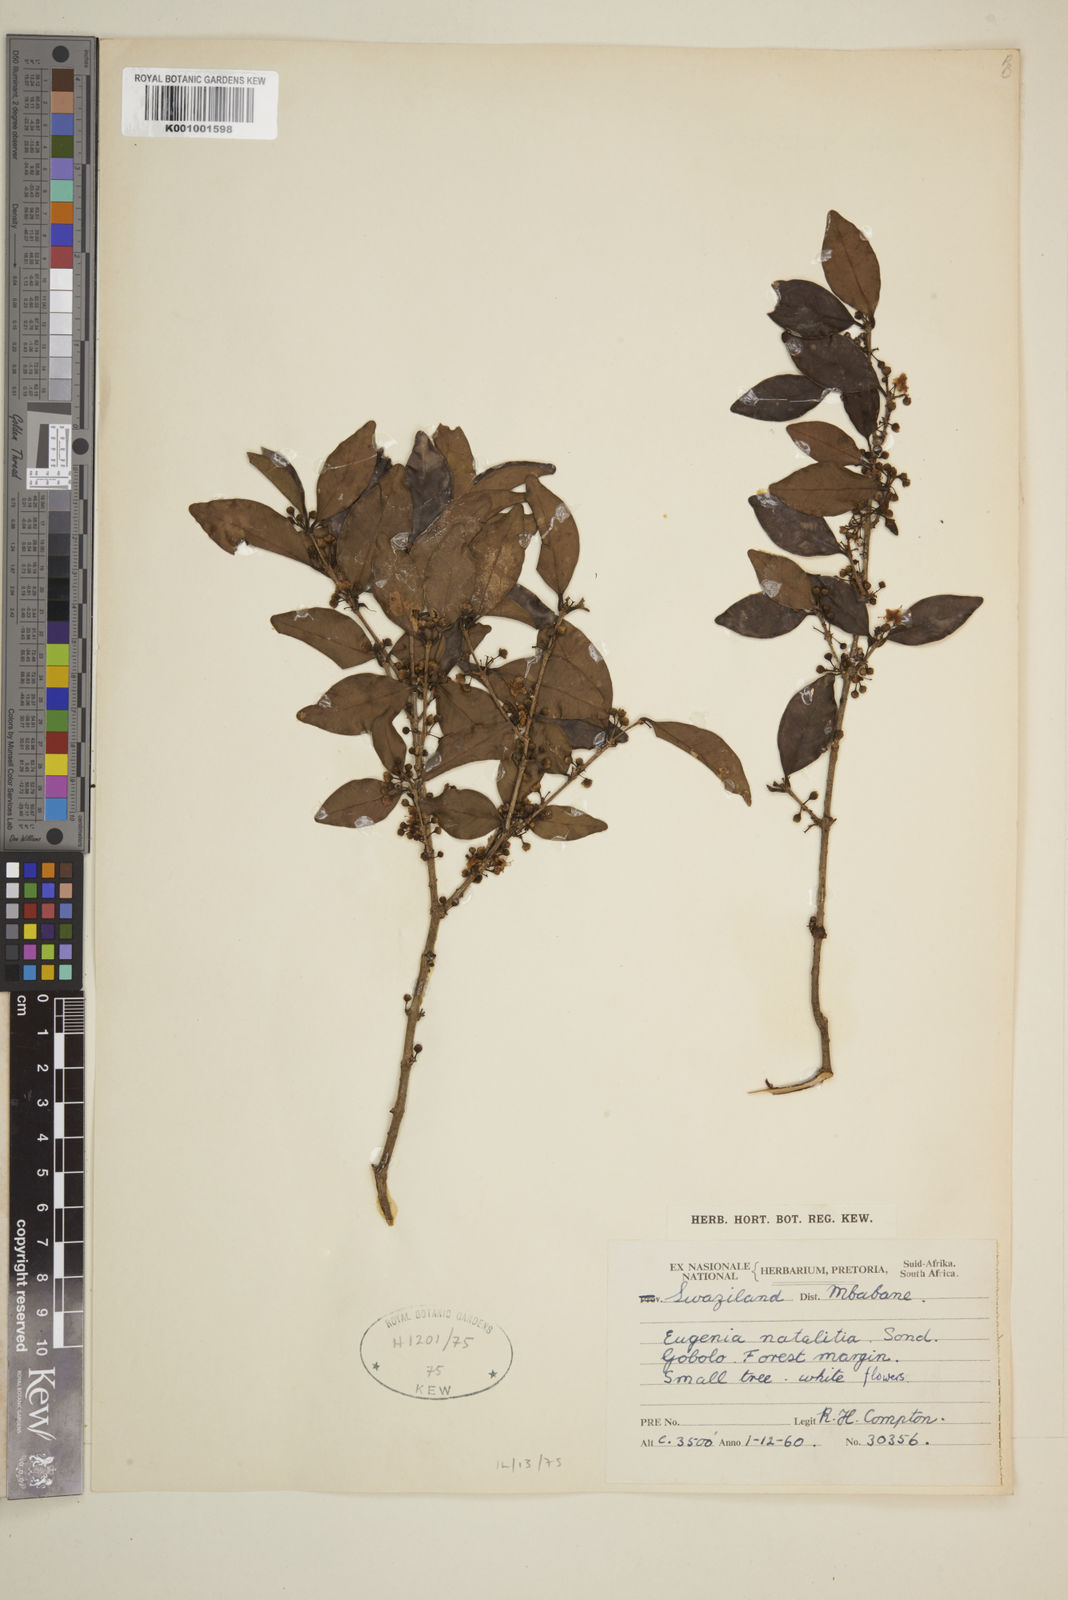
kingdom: Plantae
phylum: Tracheophyta
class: Magnoliopsida
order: Myrtales
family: Myrtaceae
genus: Eugenia
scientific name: Eugenia natalitia
